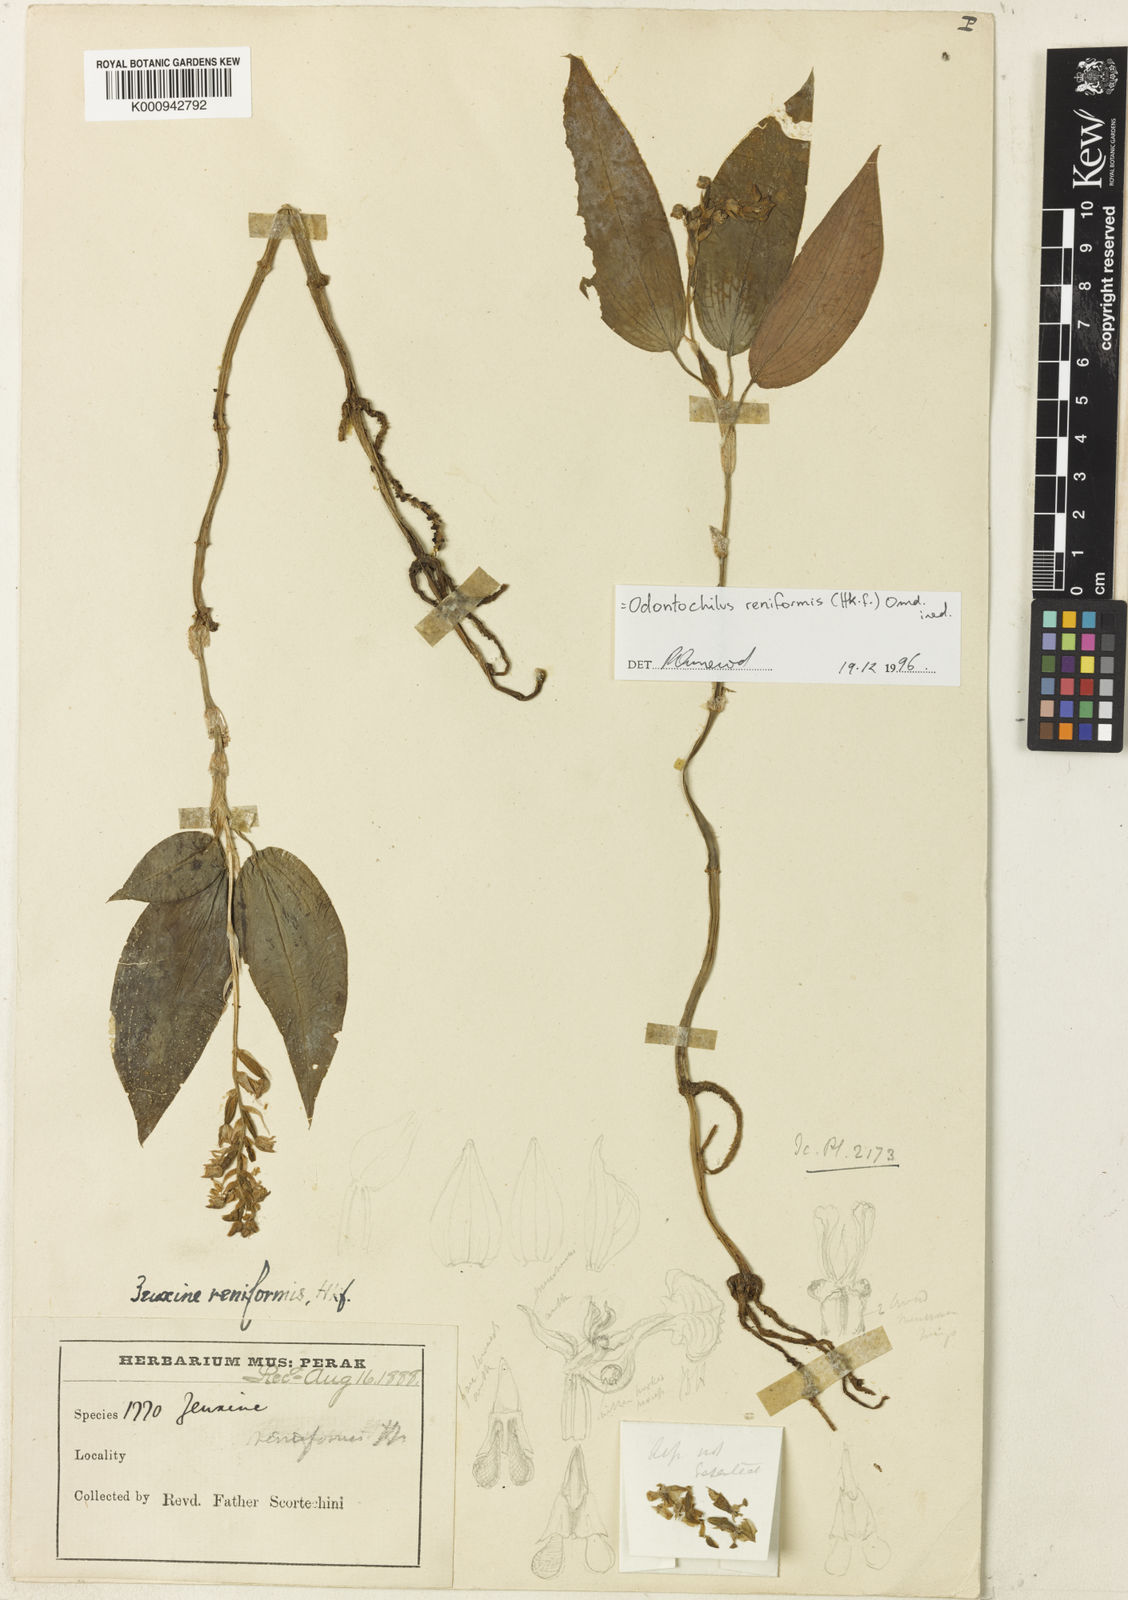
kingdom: Plantae
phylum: Tracheophyta
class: Liliopsida
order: Asparagales
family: Orchidaceae
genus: Odontochilus
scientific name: Odontochilus reniformis
